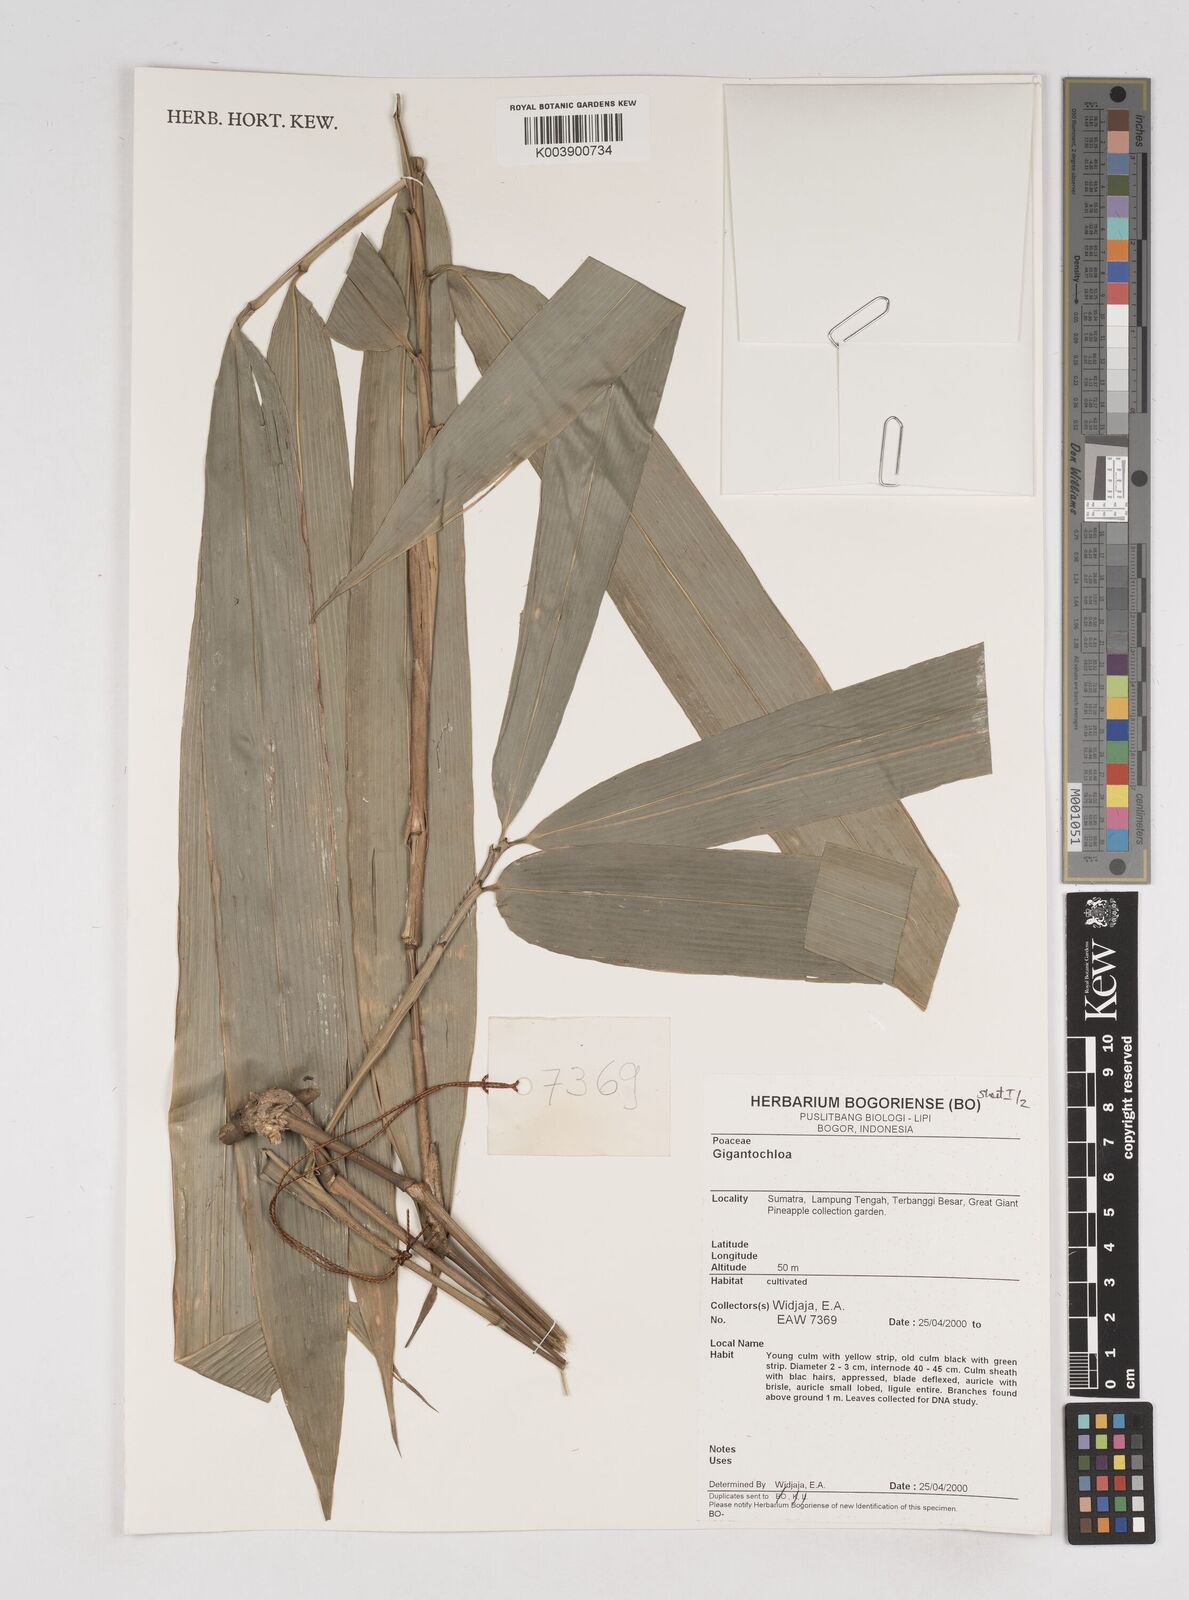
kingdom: Plantae
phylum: Tracheophyta
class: Liliopsida
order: Poales
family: Poaceae
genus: Gigantochloa
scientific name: Gigantochloa
